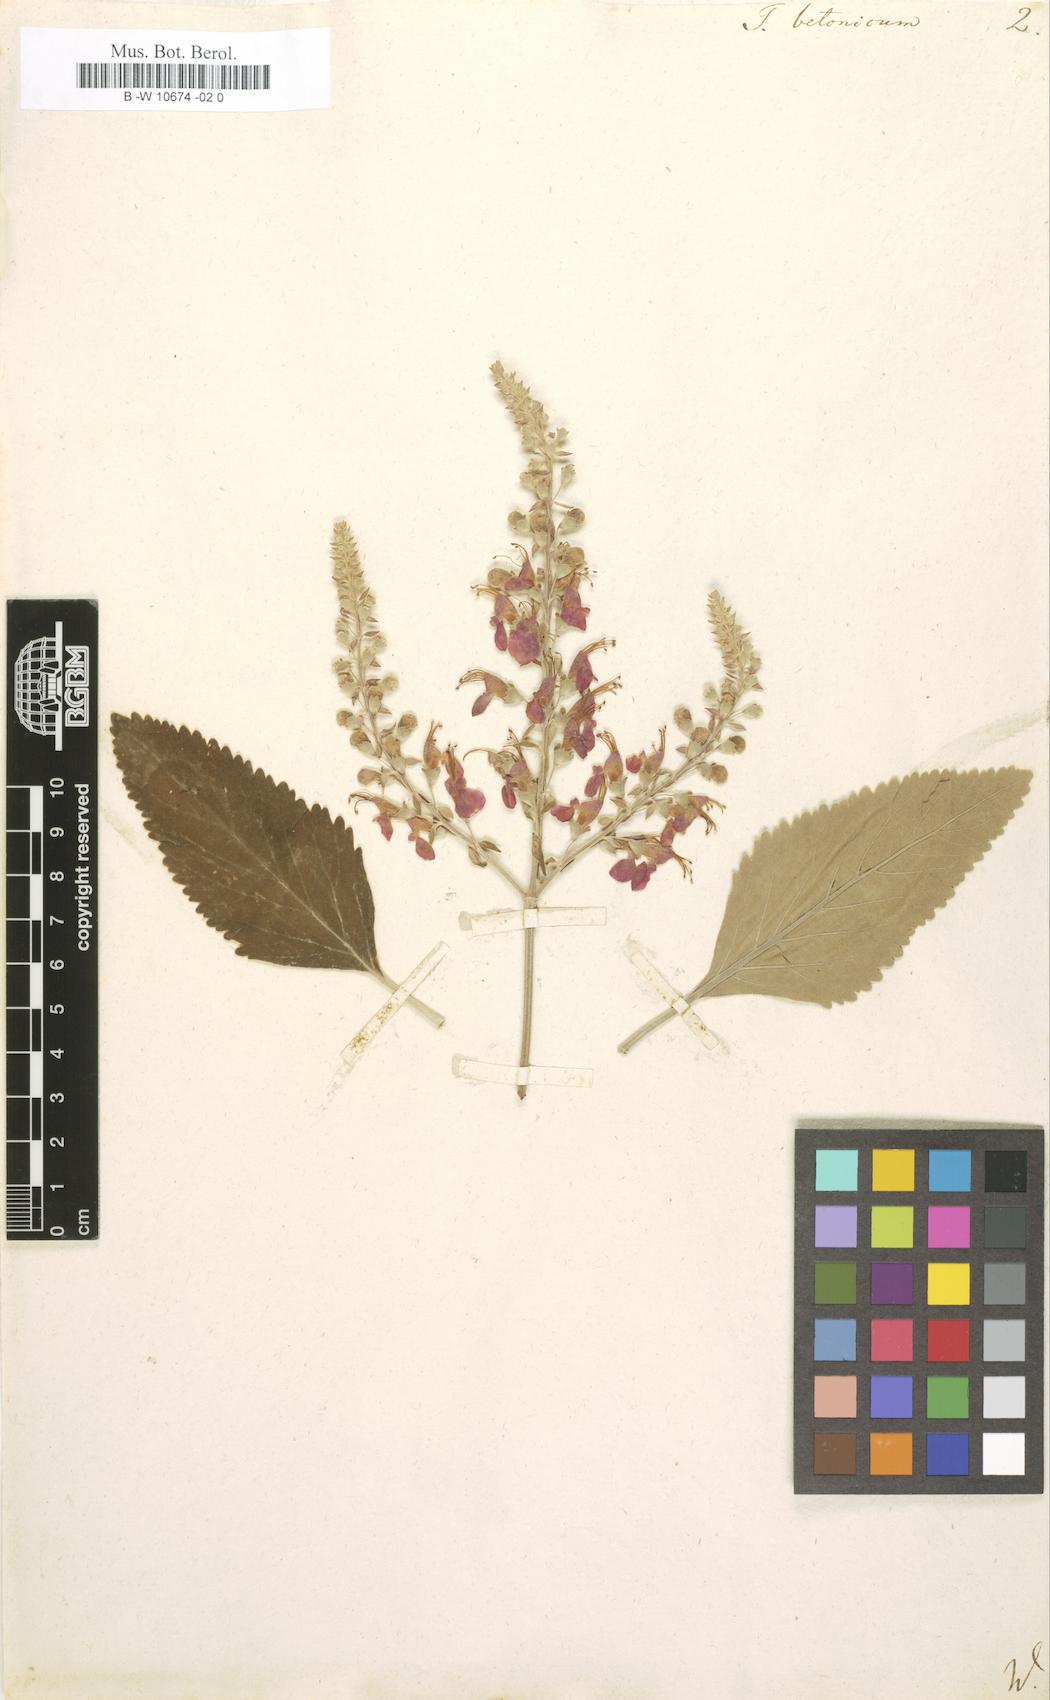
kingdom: Plantae
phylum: Tracheophyta
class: Magnoliopsida
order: Lamiales
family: Lamiaceae
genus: Teucrium
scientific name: Teucrium betonicum
